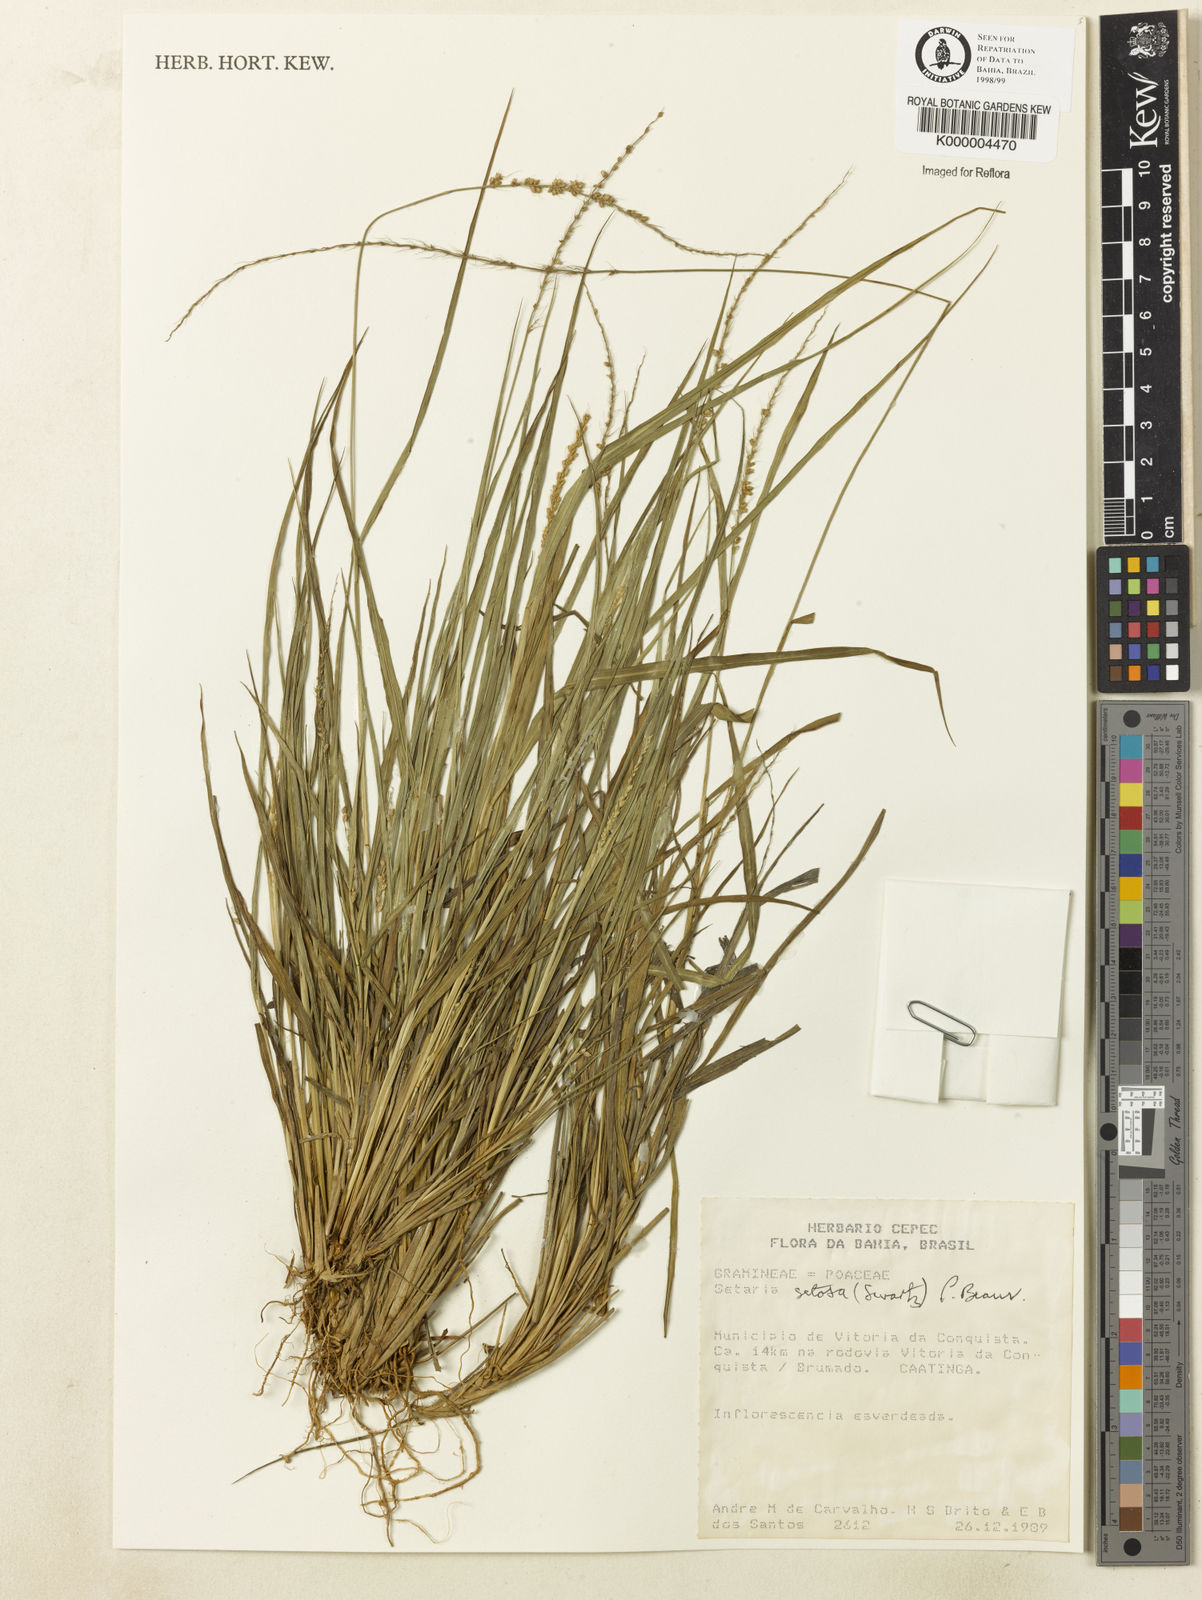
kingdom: Plantae
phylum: Tracheophyta
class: Liliopsida
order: Poales
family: Poaceae
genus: Setaria
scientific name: Setaria setosa
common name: West indies bristle grass
